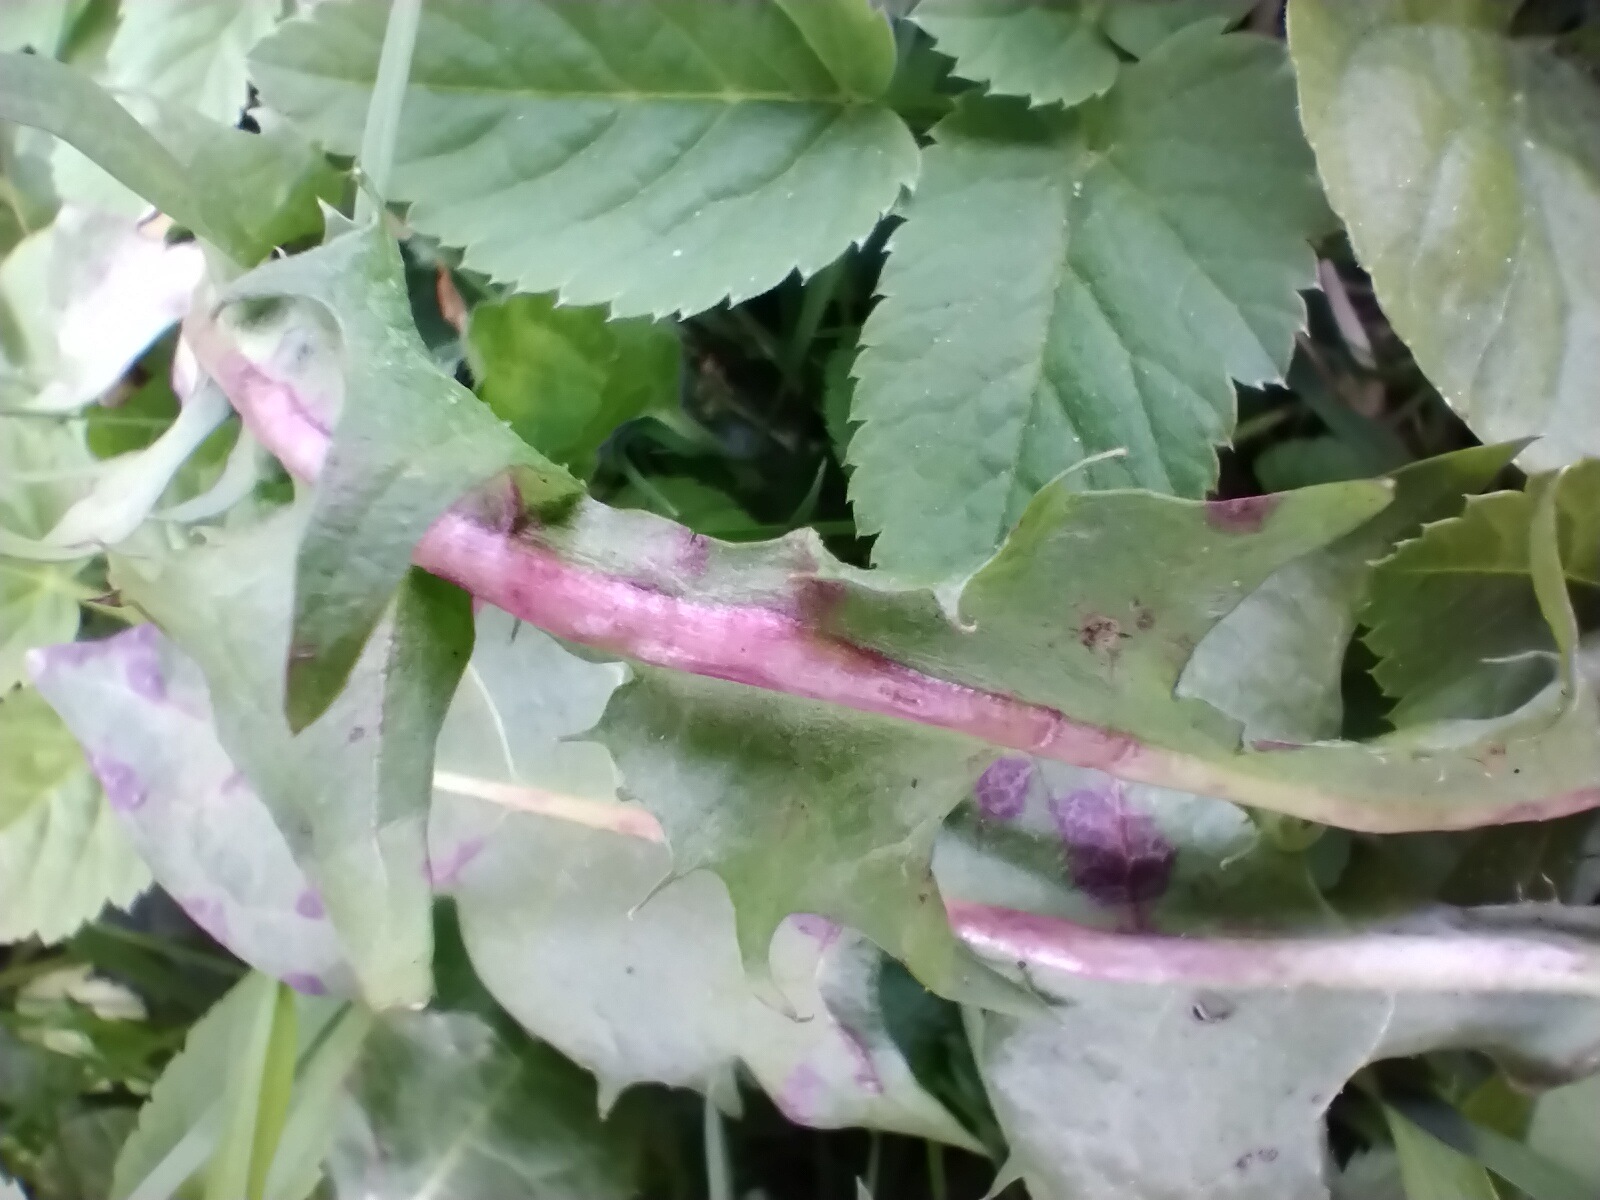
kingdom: Fungi
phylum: Ascomycota
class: Taphrinomycetes
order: Taphrinales
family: Taphrinaceae
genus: Protomyces
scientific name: Protomyces pachydermus
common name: mælkebøtte-vablesæk
